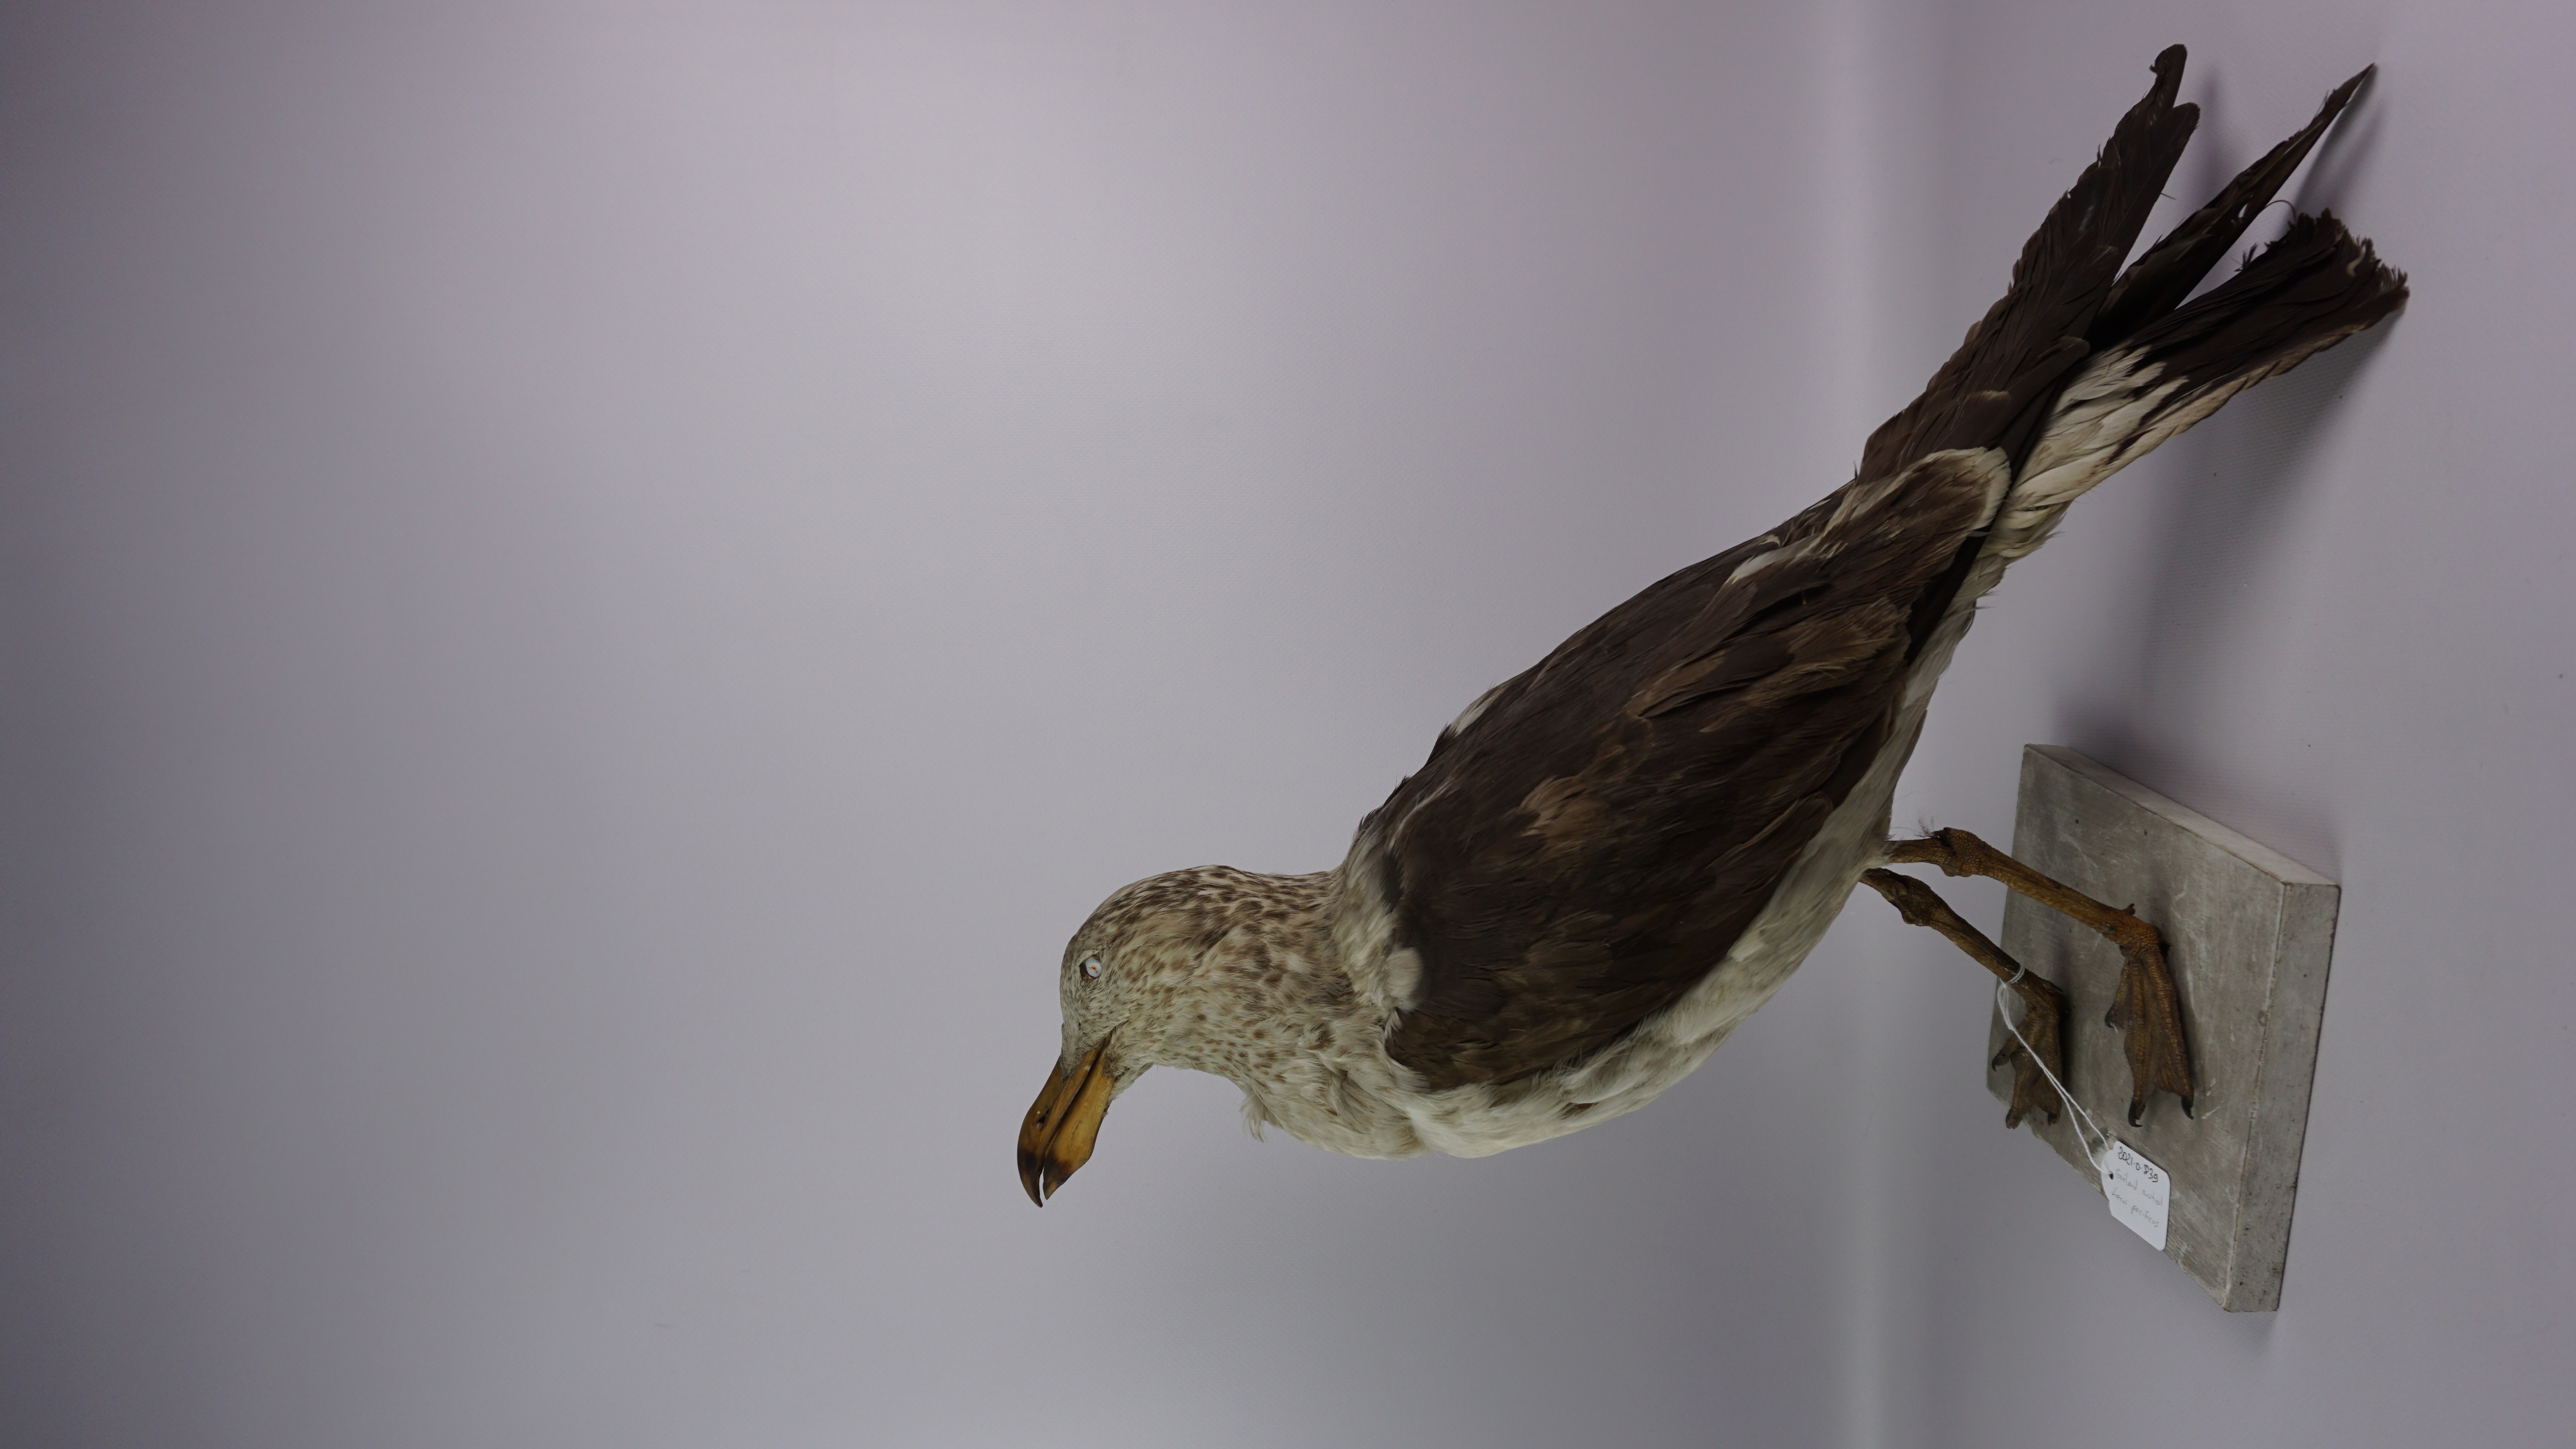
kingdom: Animalia
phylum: Chordata
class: Aves
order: Charadriiformes
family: Laridae
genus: Larus
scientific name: Larus pacificus
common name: Pacific gull
